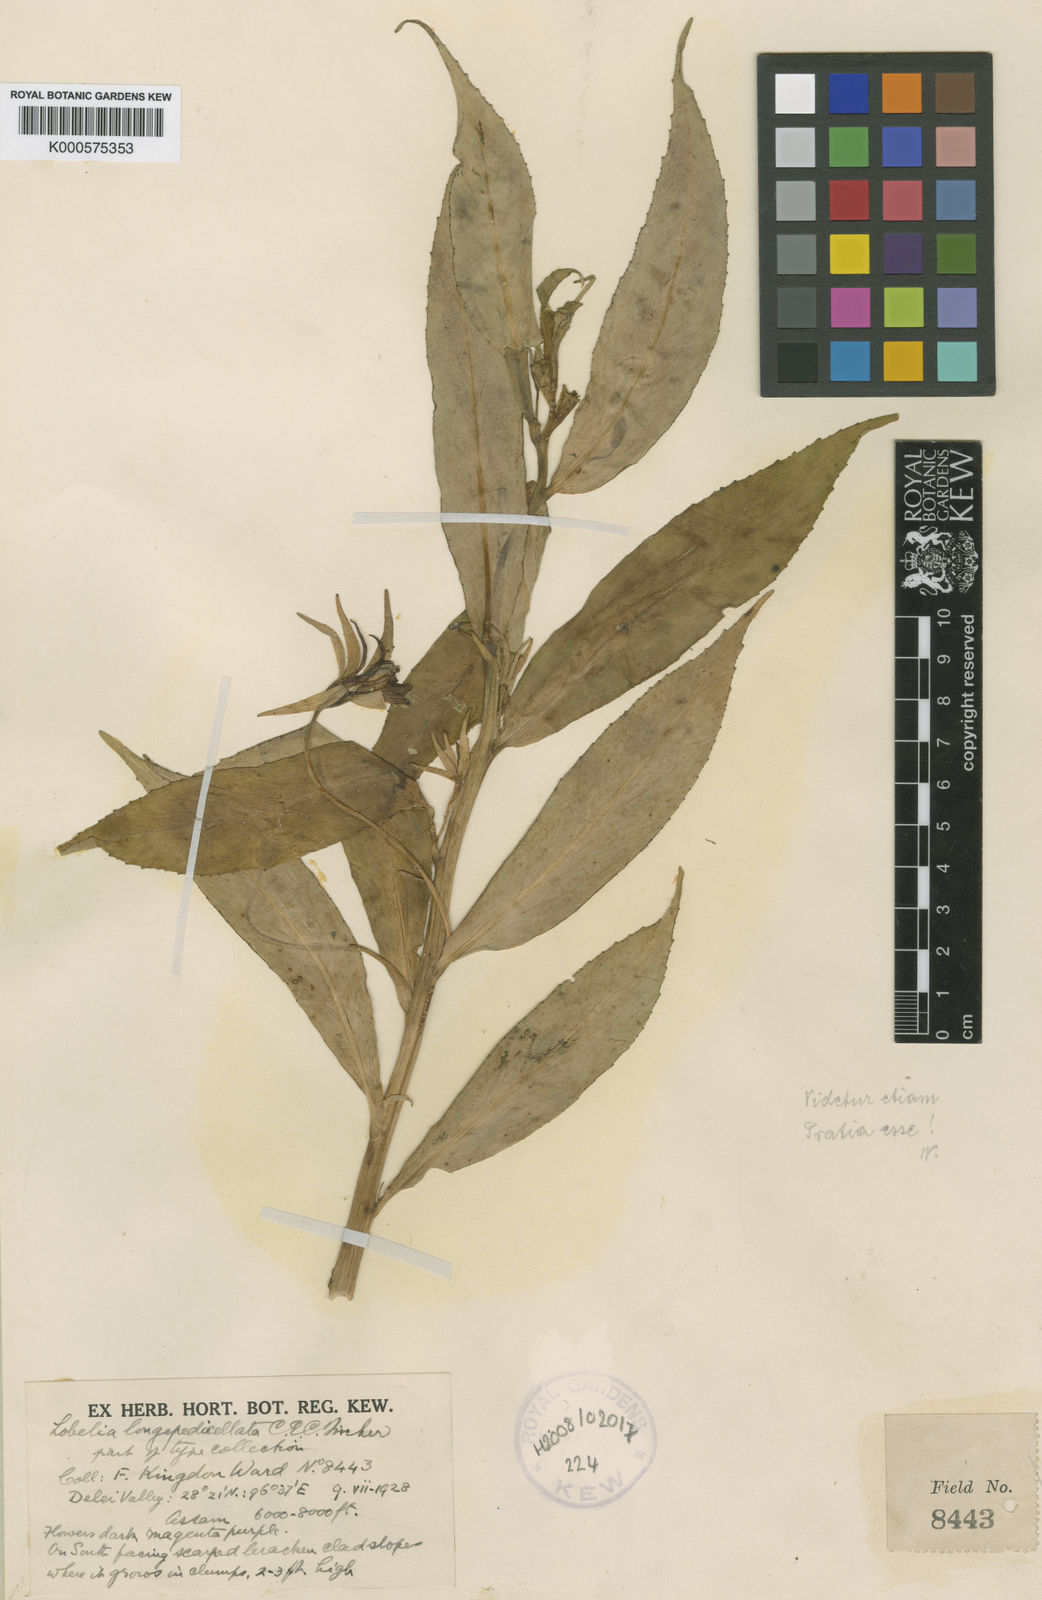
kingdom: Plantae
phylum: Tracheophyta
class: Magnoliopsida
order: Asterales
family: Campanulaceae
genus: Lobelia
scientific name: Lobelia
